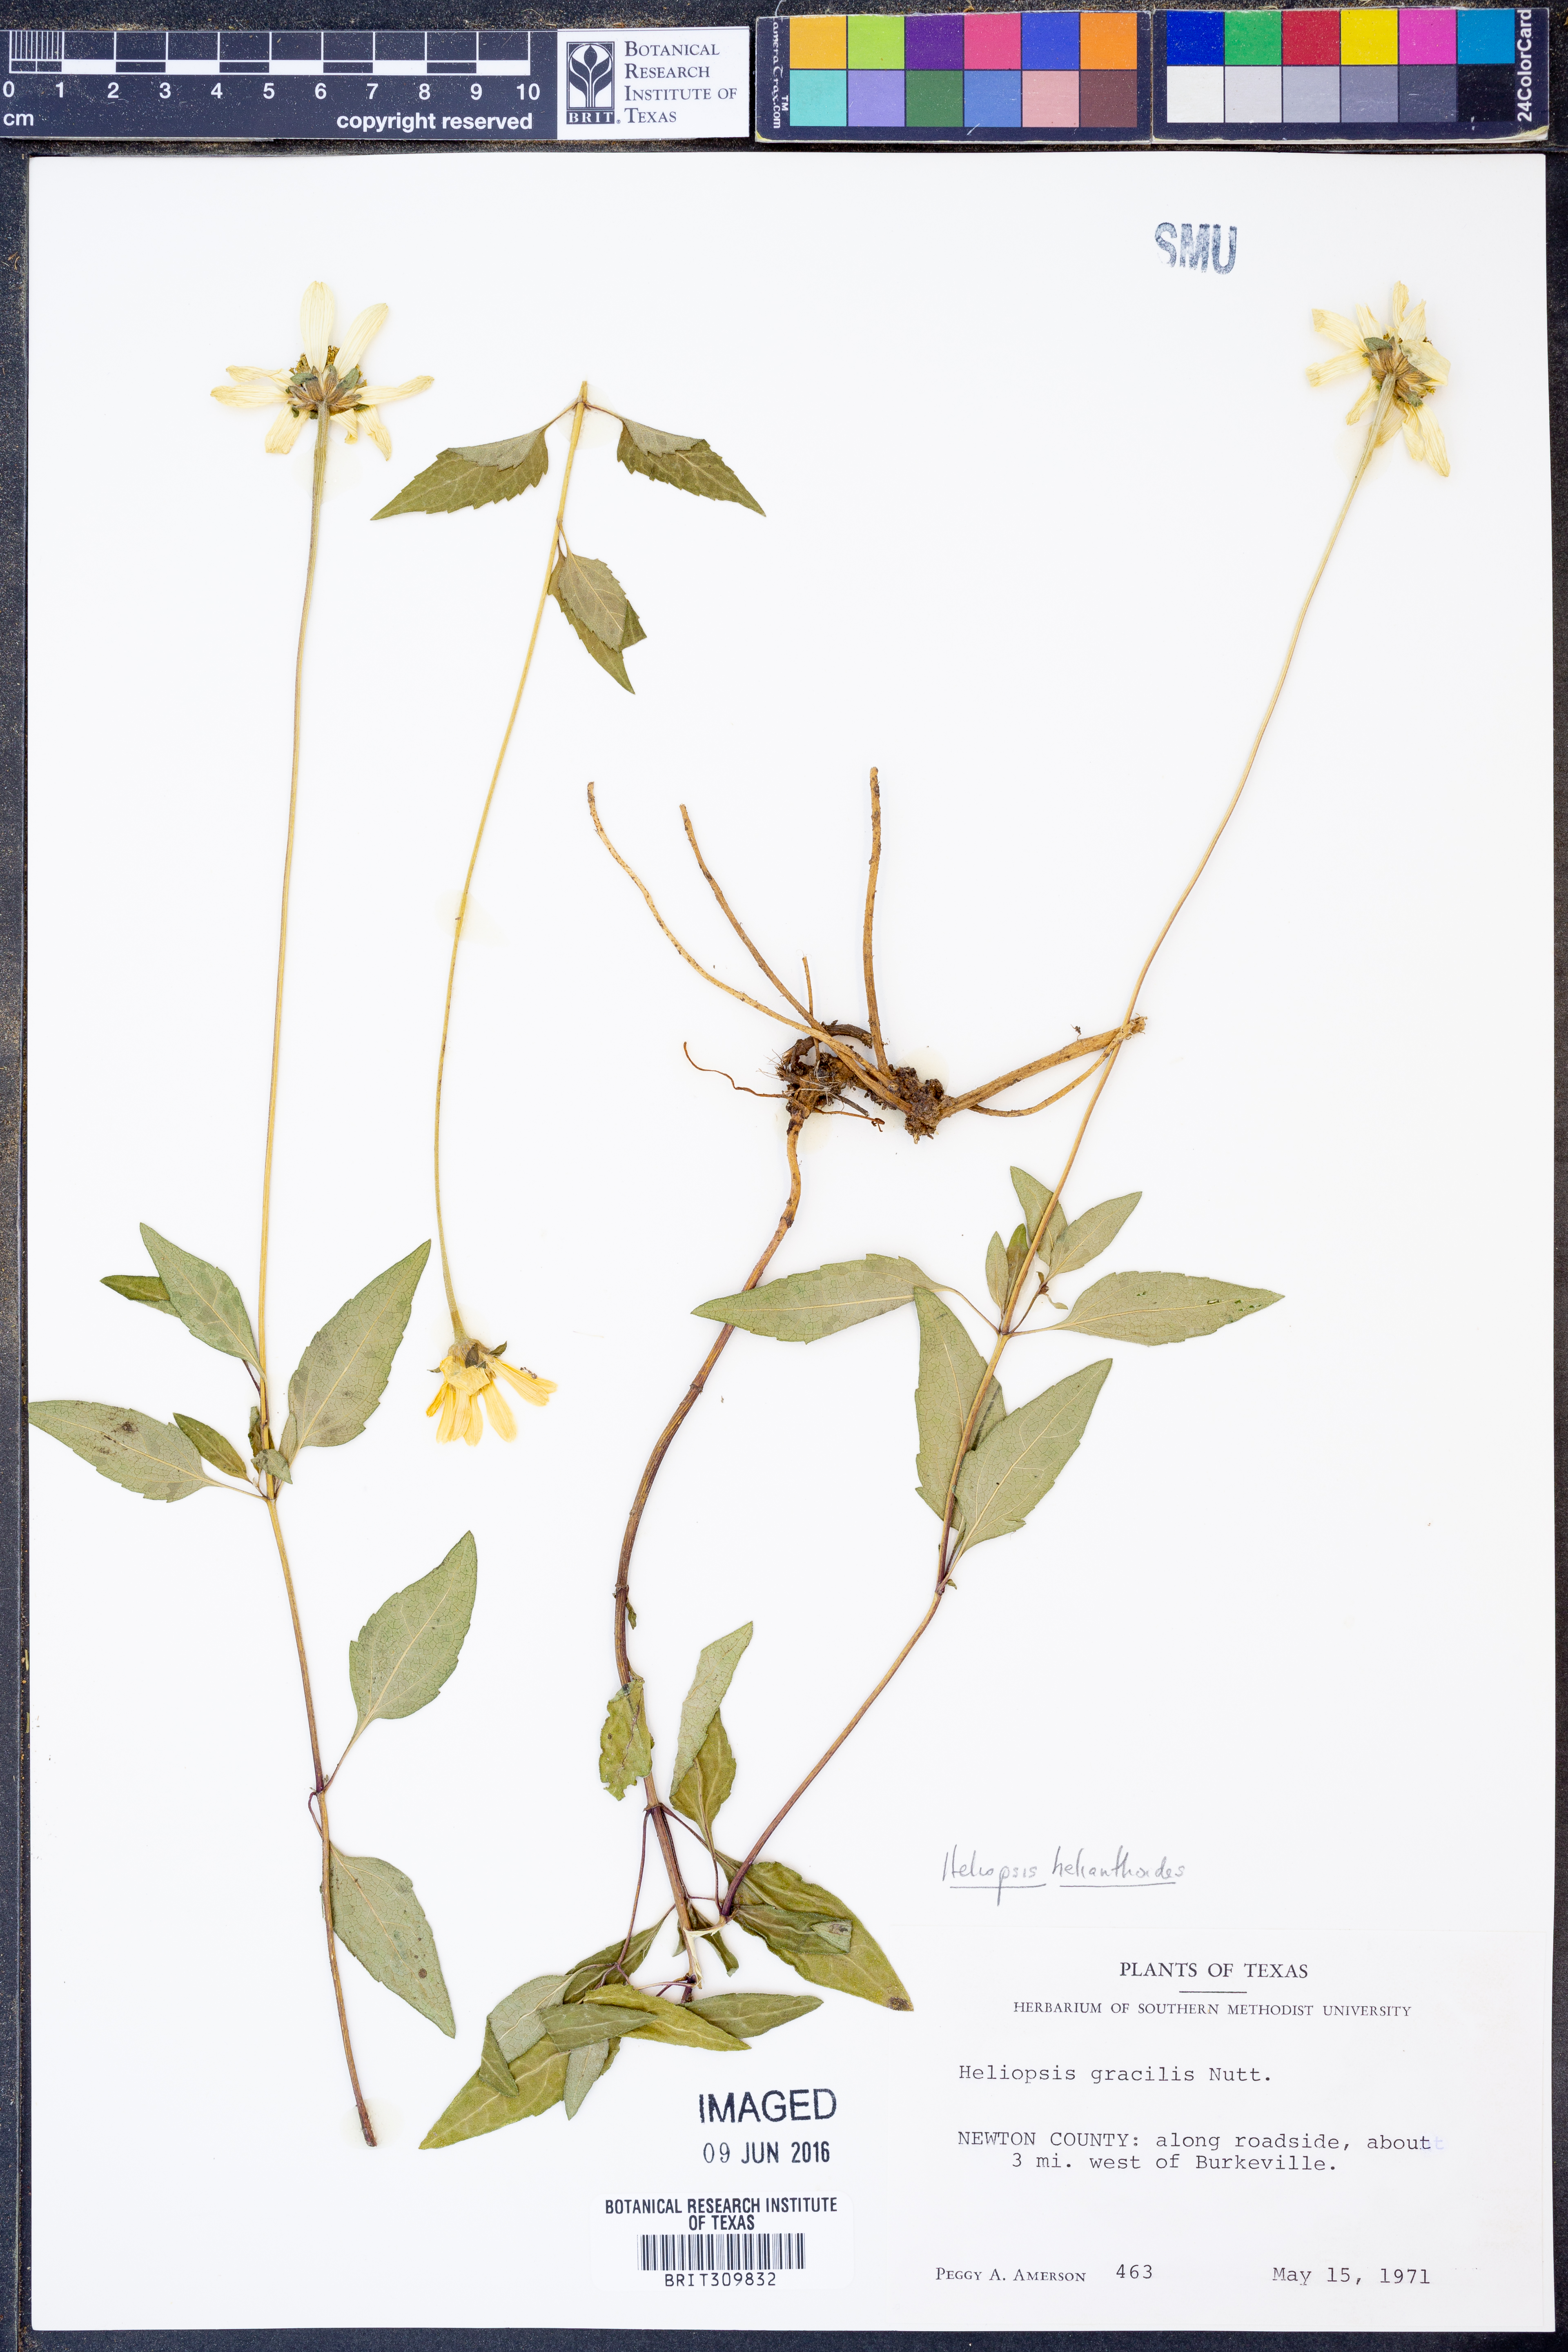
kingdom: Plantae
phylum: Tracheophyta
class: Magnoliopsida
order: Asterales
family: Asteraceae
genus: Heliopsis
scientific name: Heliopsis helianthoides
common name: False sunflower
